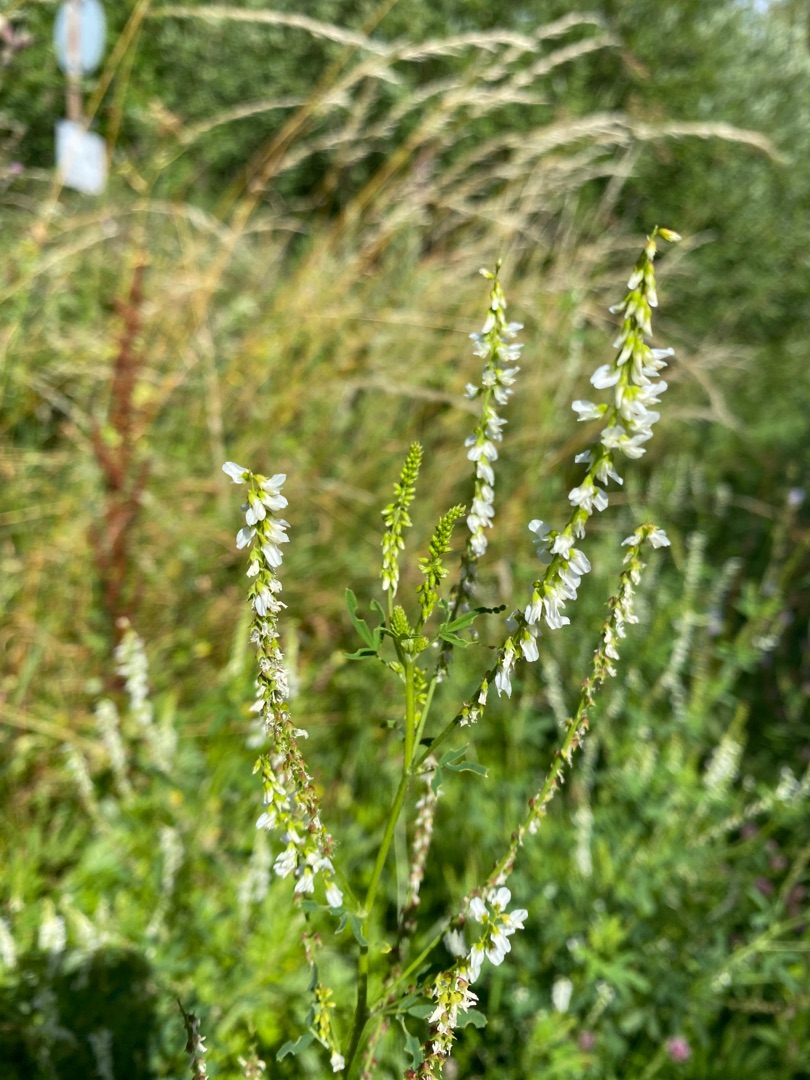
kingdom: Plantae
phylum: Tracheophyta
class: Magnoliopsida
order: Fabales
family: Fabaceae
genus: Melilotus
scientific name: Melilotus albus
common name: Hvid stenkløver
